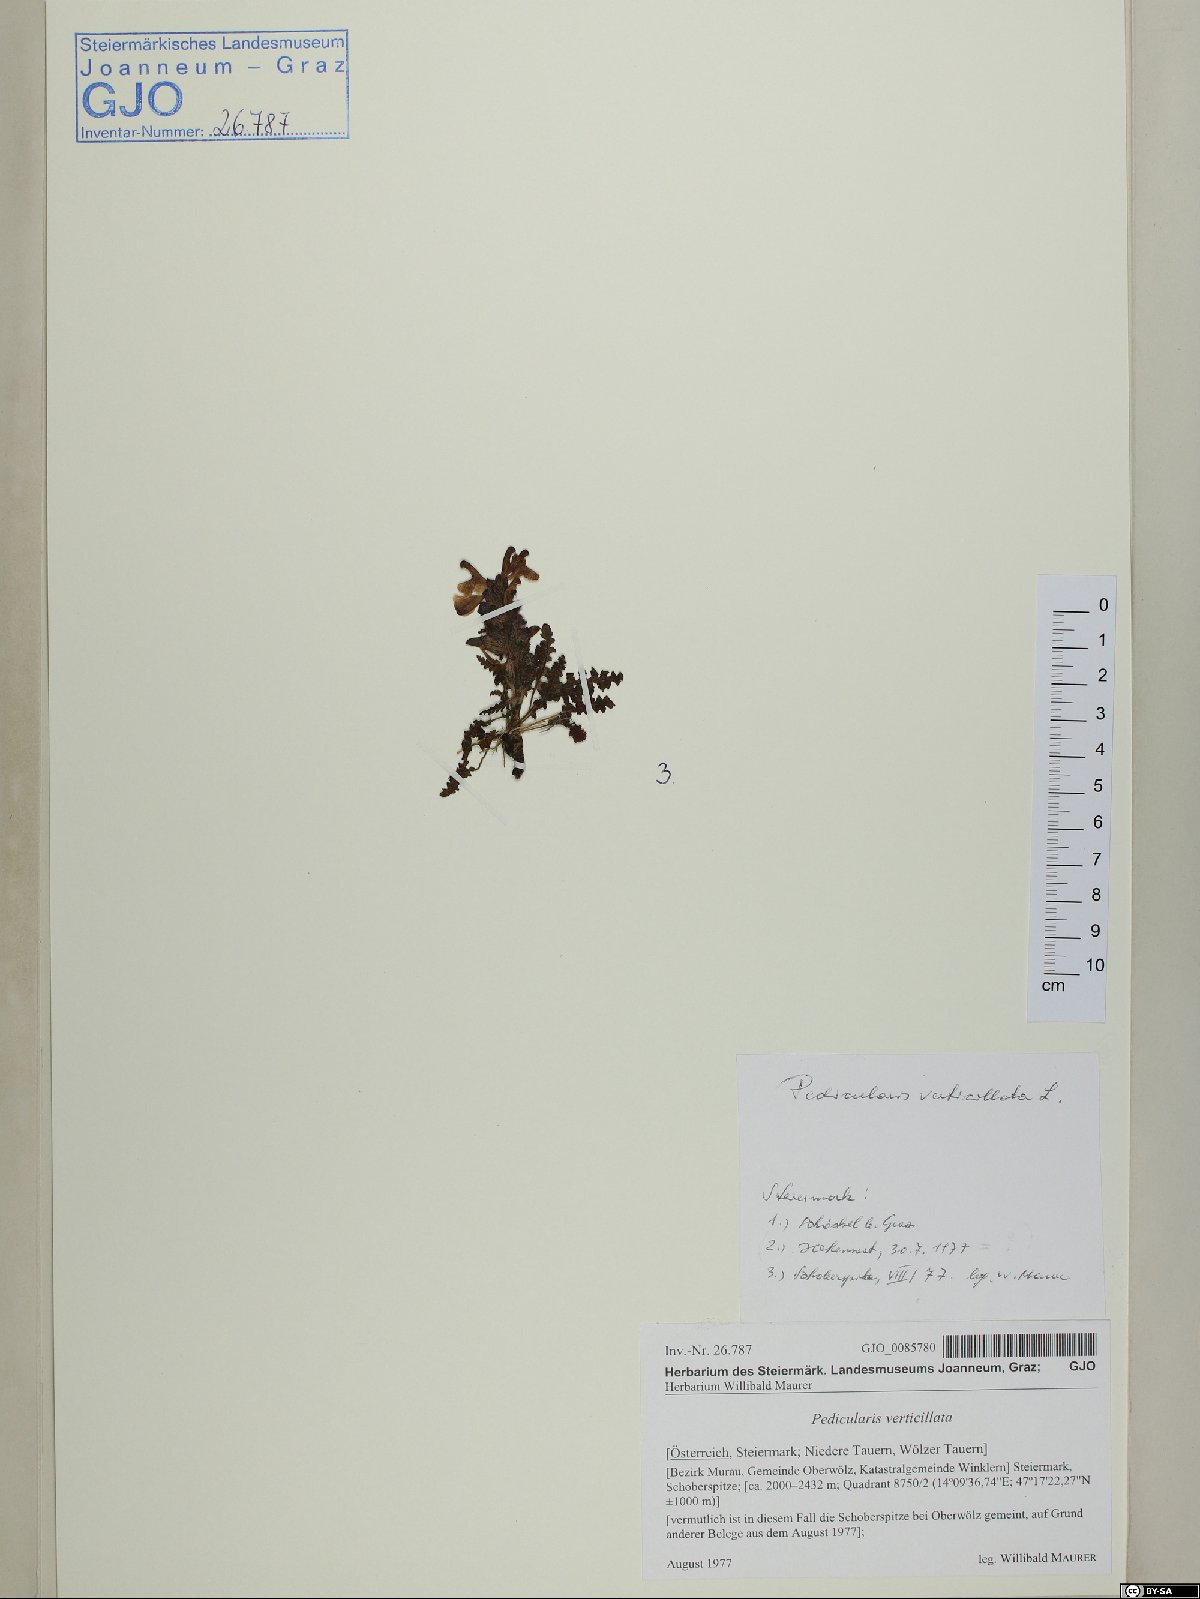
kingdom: Plantae
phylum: Tracheophyta
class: Magnoliopsida
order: Lamiales
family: Orobanchaceae
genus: Pedicularis
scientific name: Pedicularis verticillata
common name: Whorled lousewort
